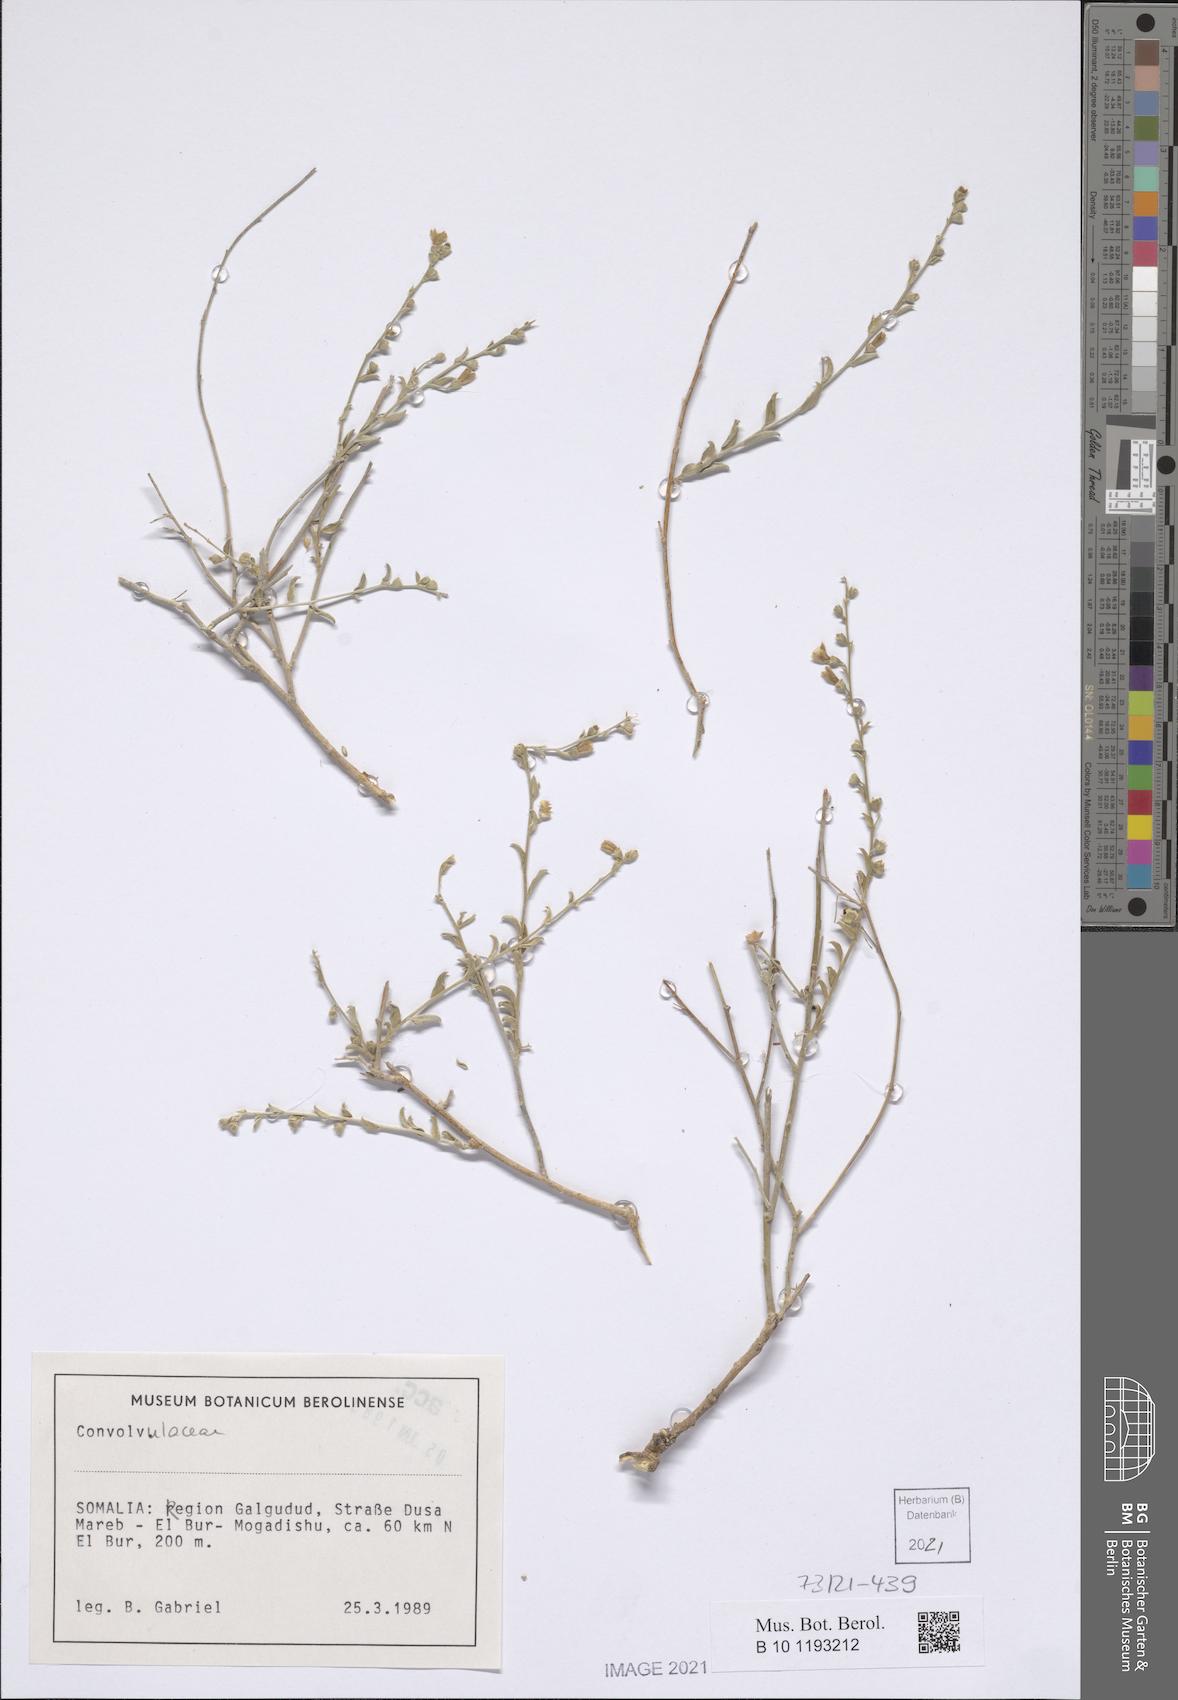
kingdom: Plantae
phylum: Tracheophyta
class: Magnoliopsida
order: Solanales
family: Convolvulaceae
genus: Convolvulus
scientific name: Convolvulus sericophyllus
